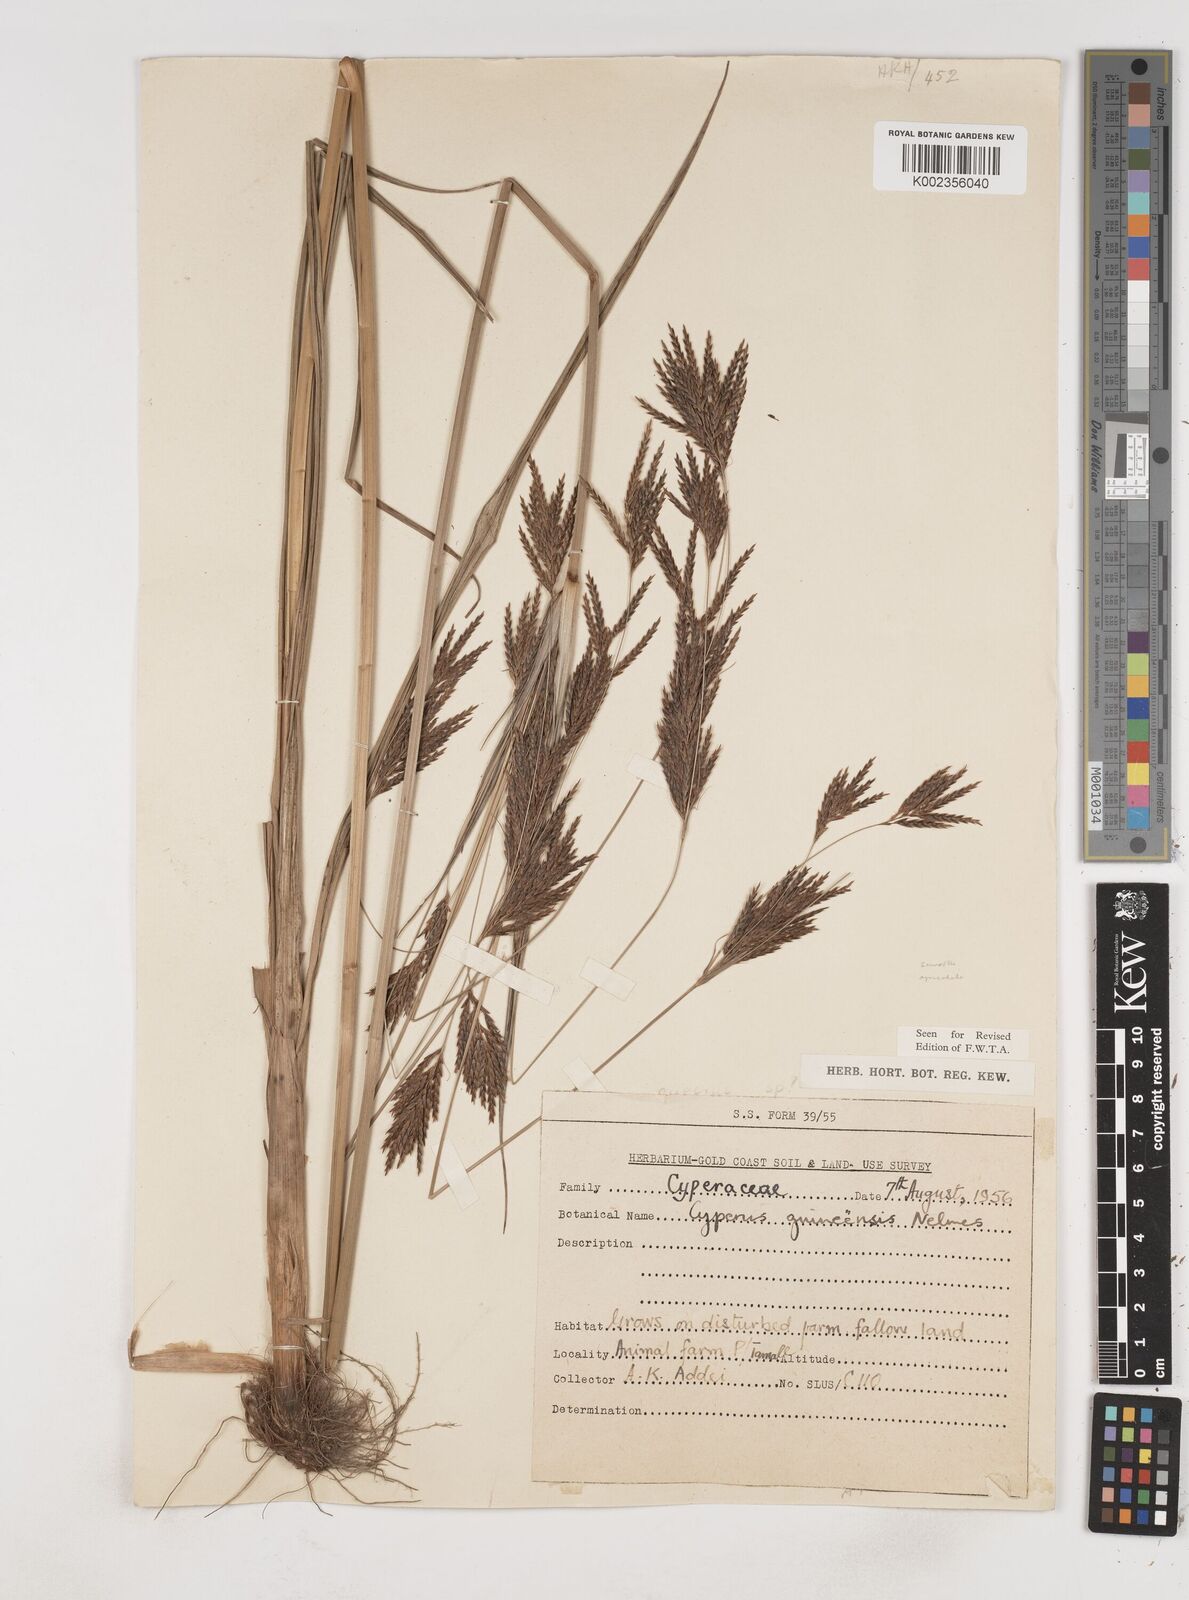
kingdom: Plantae
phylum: Tracheophyta
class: Liliopsida
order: Poales
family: Cyperaceae
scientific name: Cyperaceae
